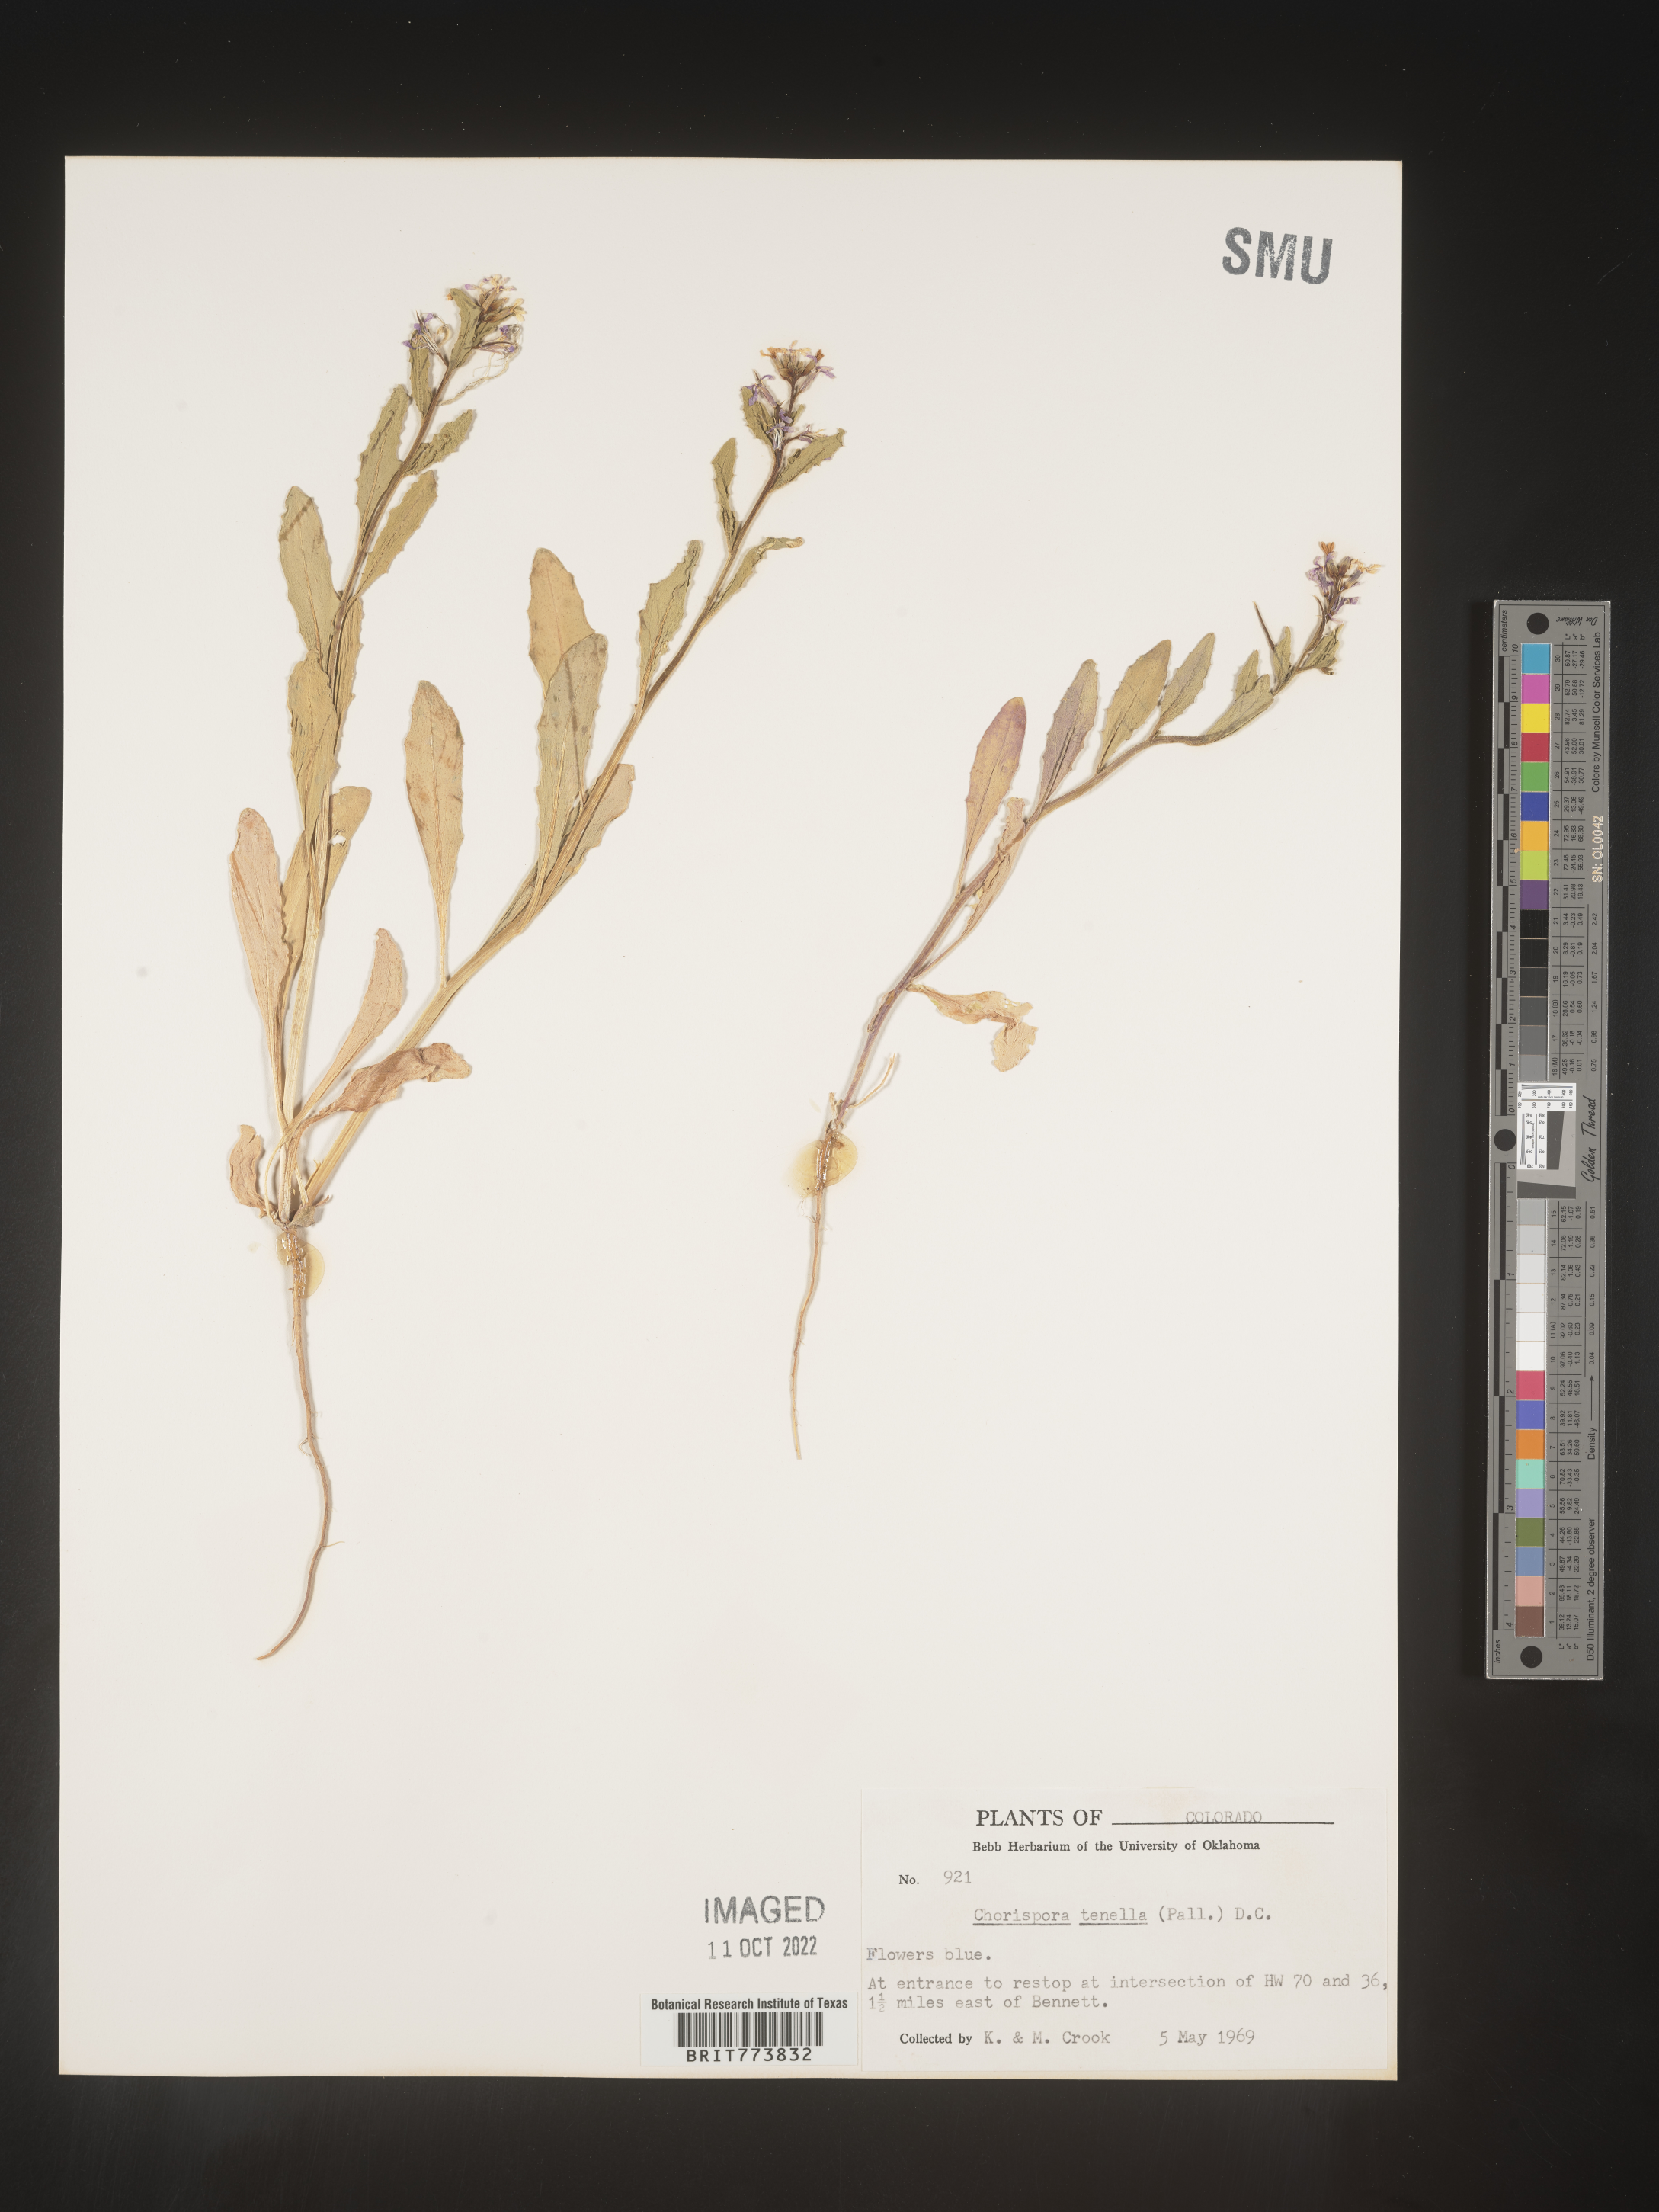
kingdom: Plantae
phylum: Tracheophyta
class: Magnoliopsida
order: Brassicales
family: Brassicaceae
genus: Chorispora
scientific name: Chorispora tenella
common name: Crossflower
